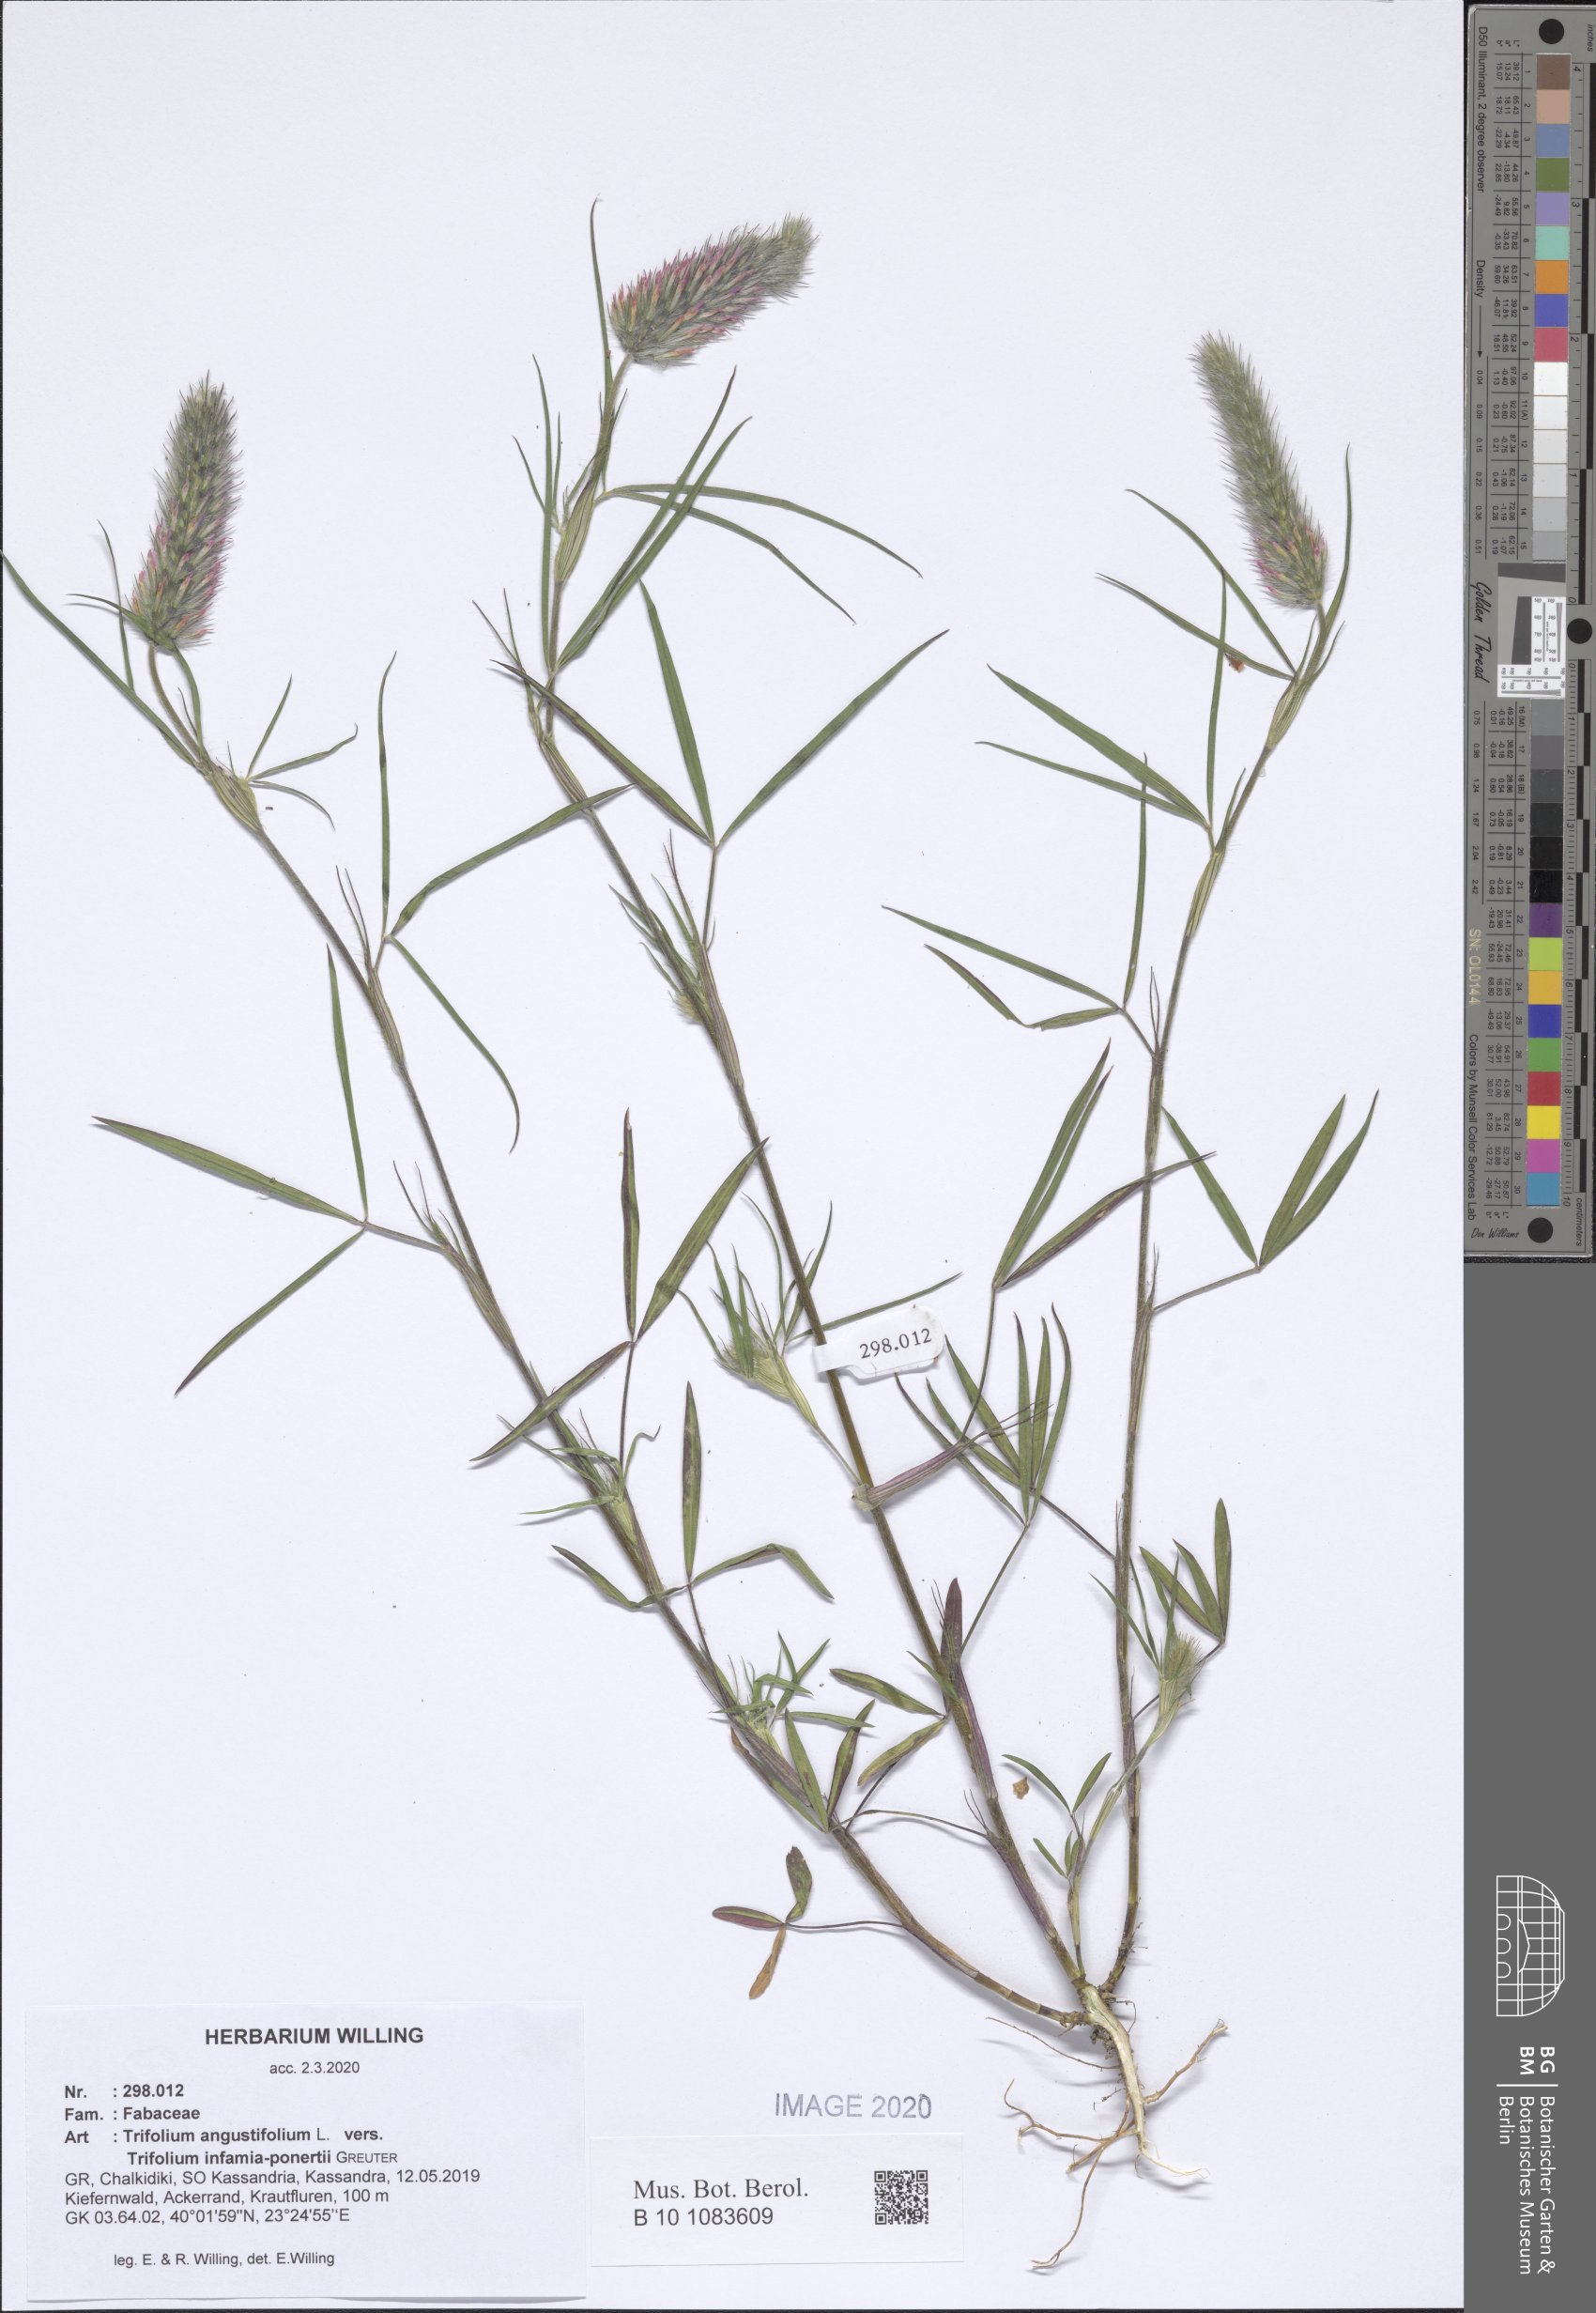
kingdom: Plantae
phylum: Tracheophyta
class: Magnoliopsida
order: Fabales
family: Fabaceae
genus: Trifolium
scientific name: Trifolium angustifolium
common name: Narrow clover
